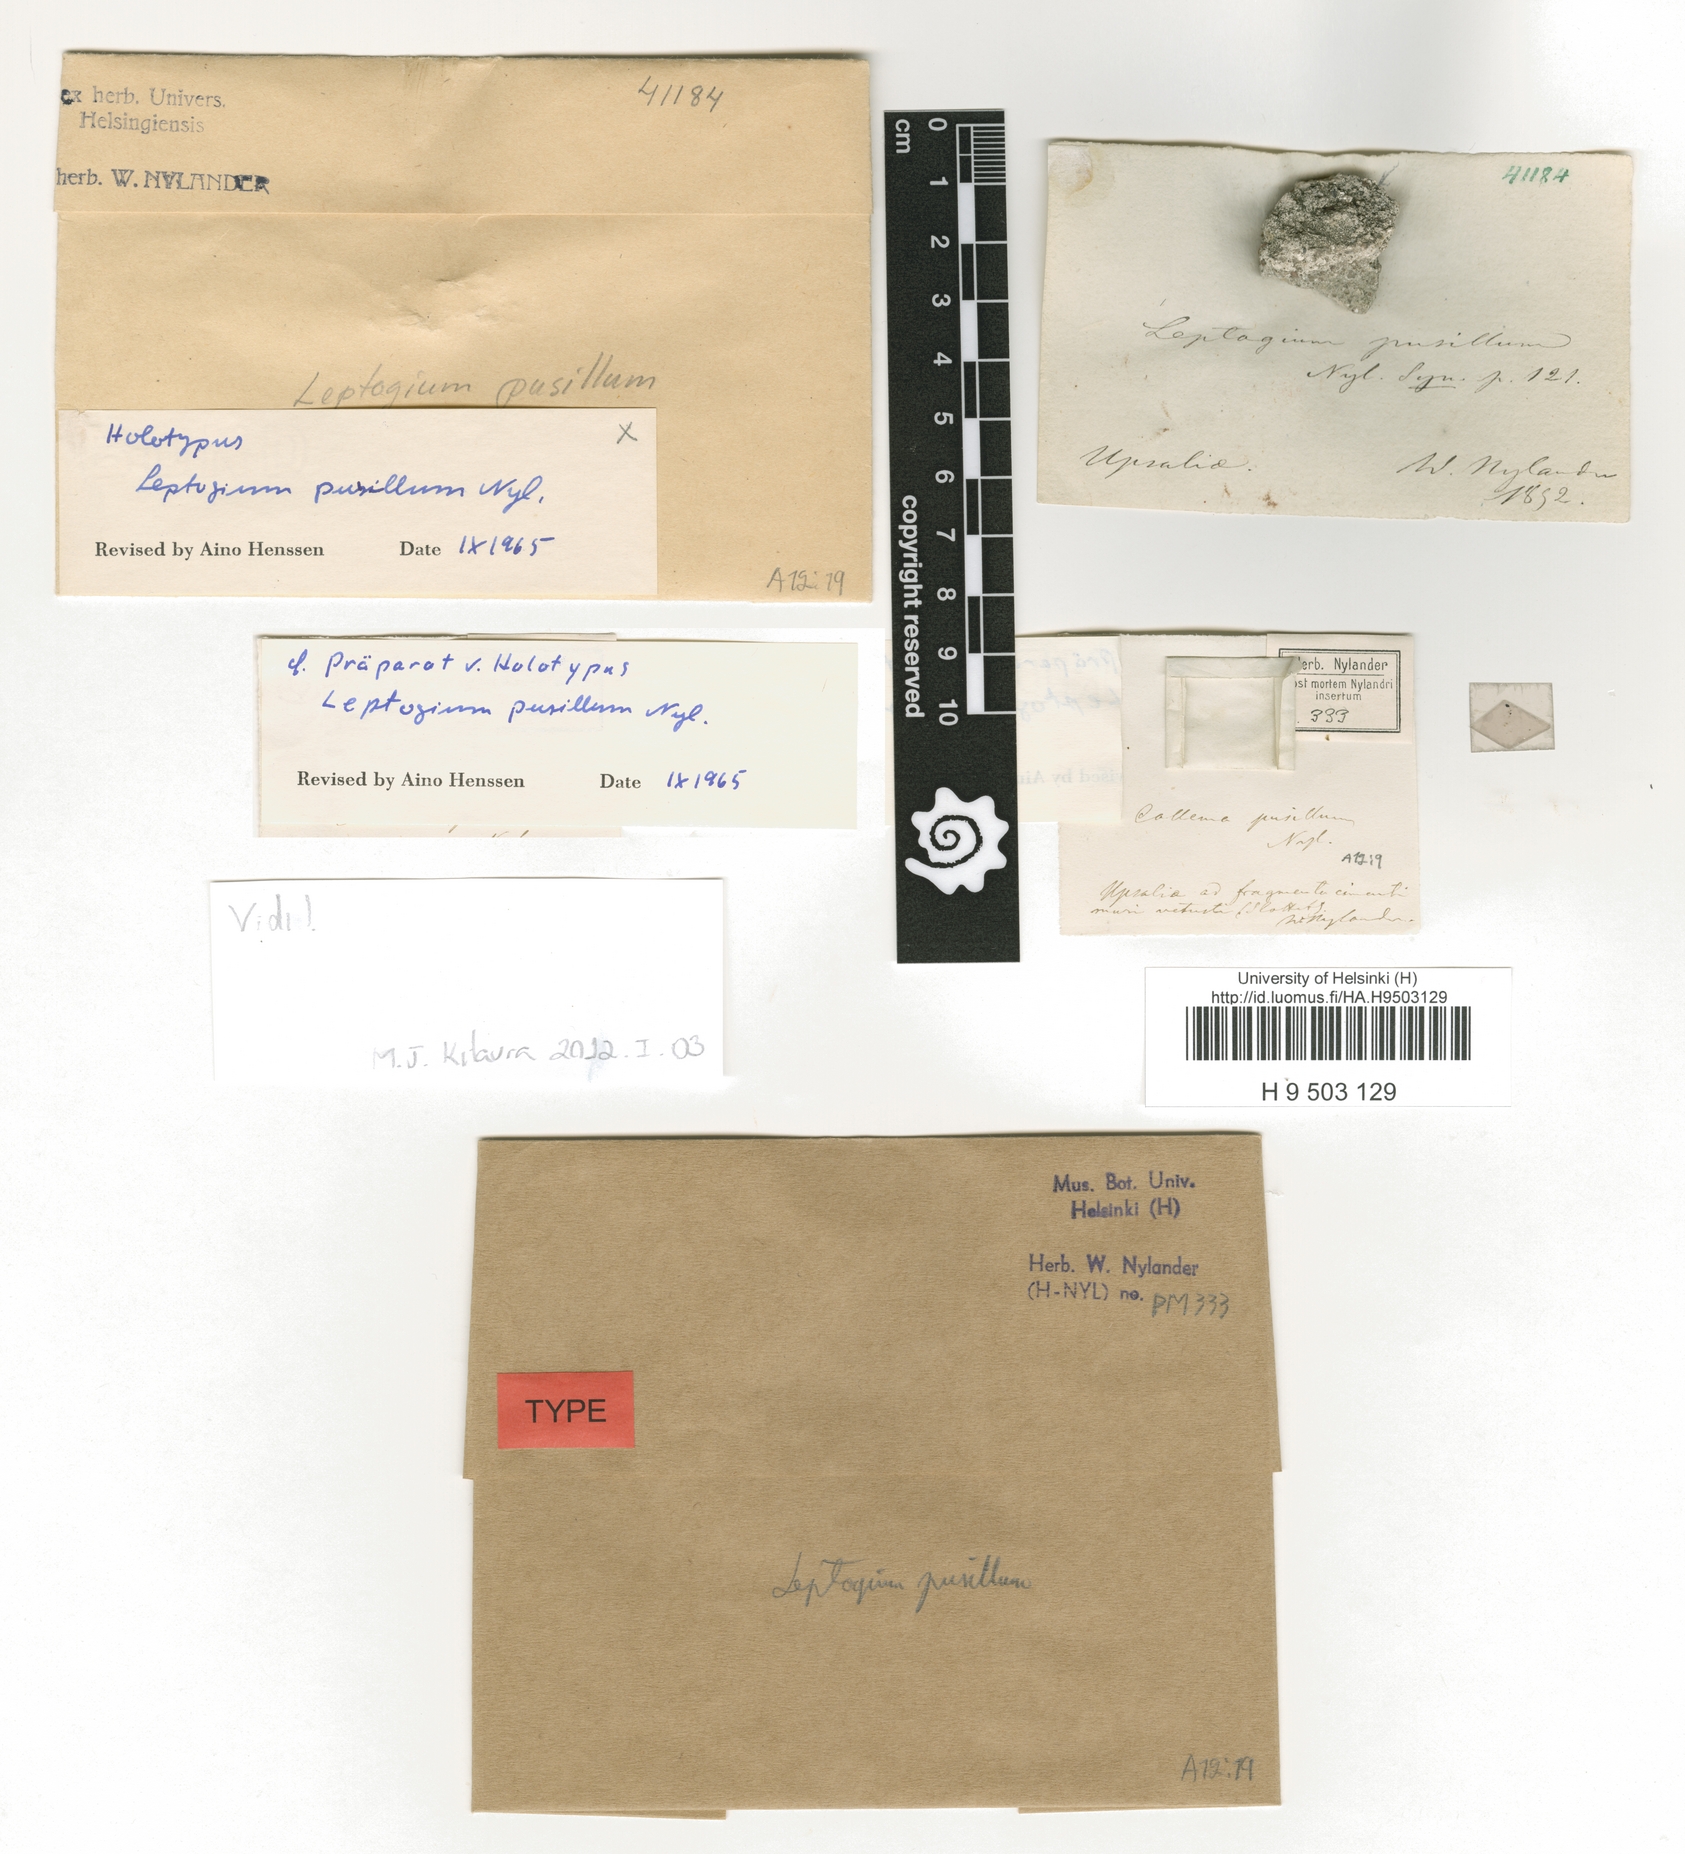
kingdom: Fungi
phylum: Ascomycota
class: Lecanoromycetes
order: Peltigerales
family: Collemataceae
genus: Scytinium
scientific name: Scytinium biatorinum
